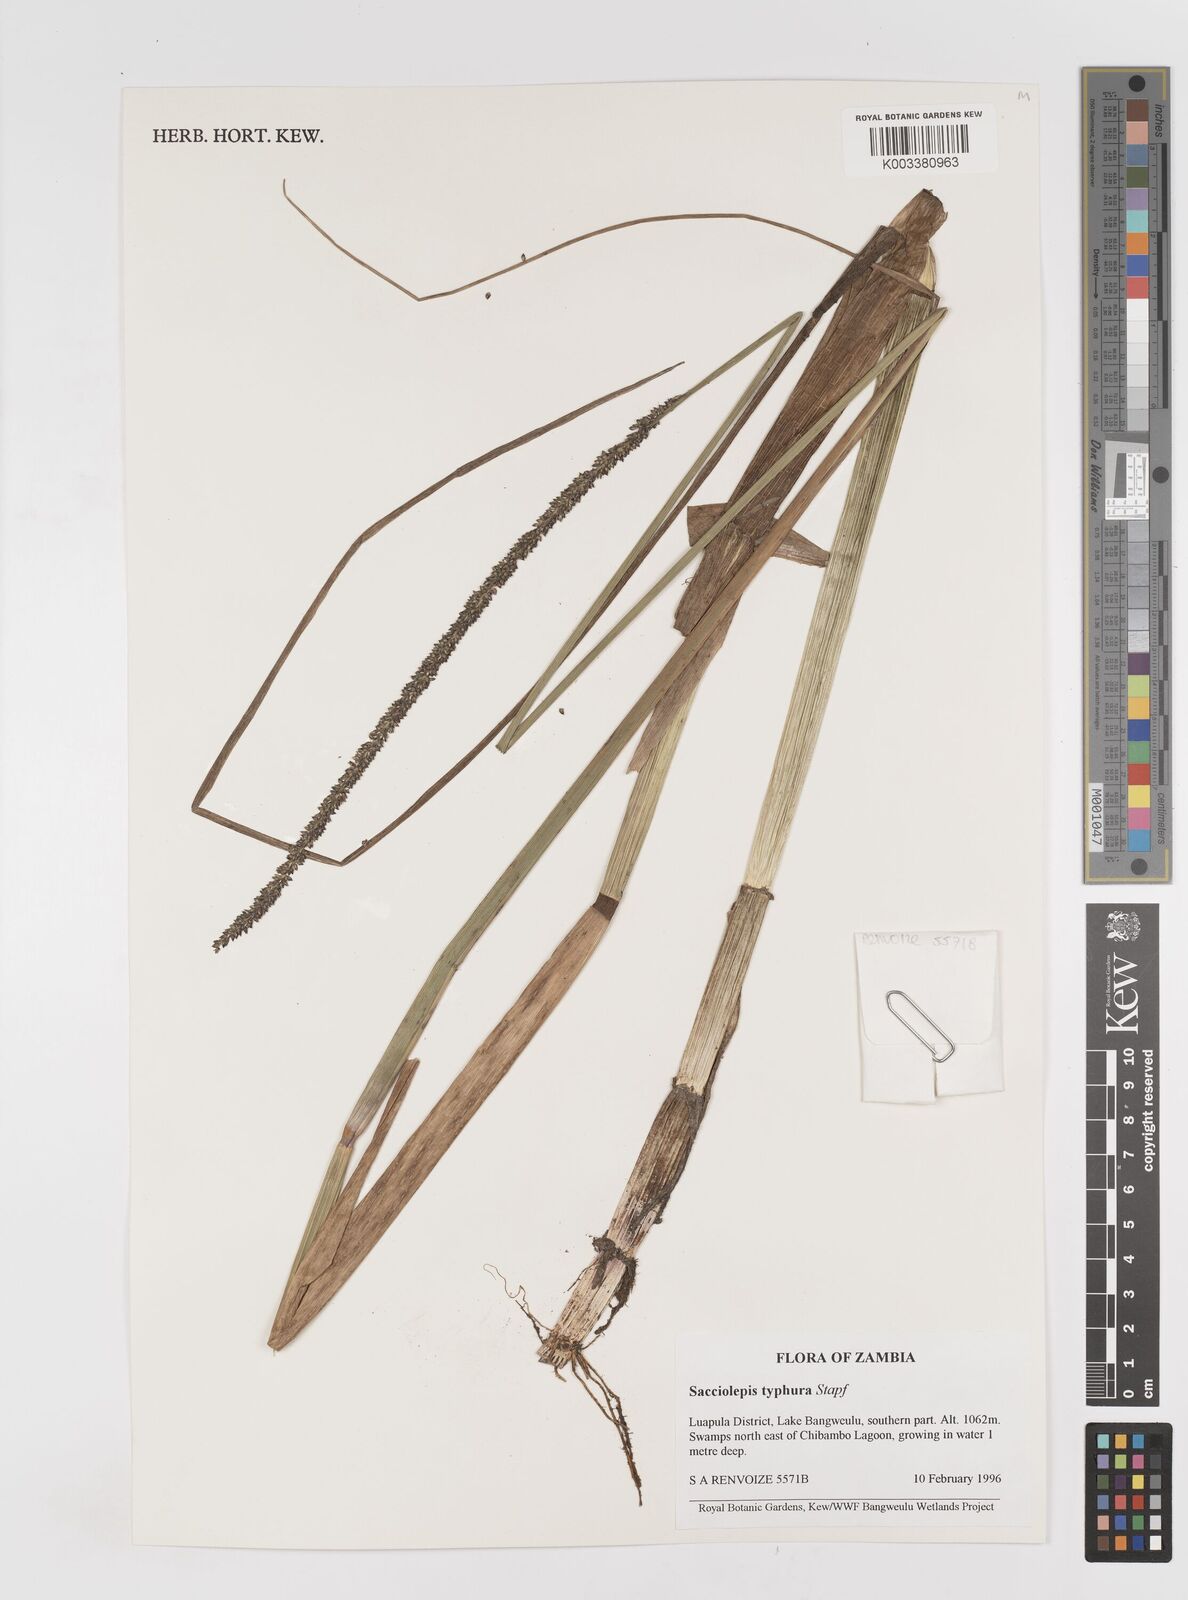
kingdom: Plantae
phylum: Tracheophyta
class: Liliopsida
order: Poales
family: Poaceae
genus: Sacciolepis
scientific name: Sacciolepis typhura
